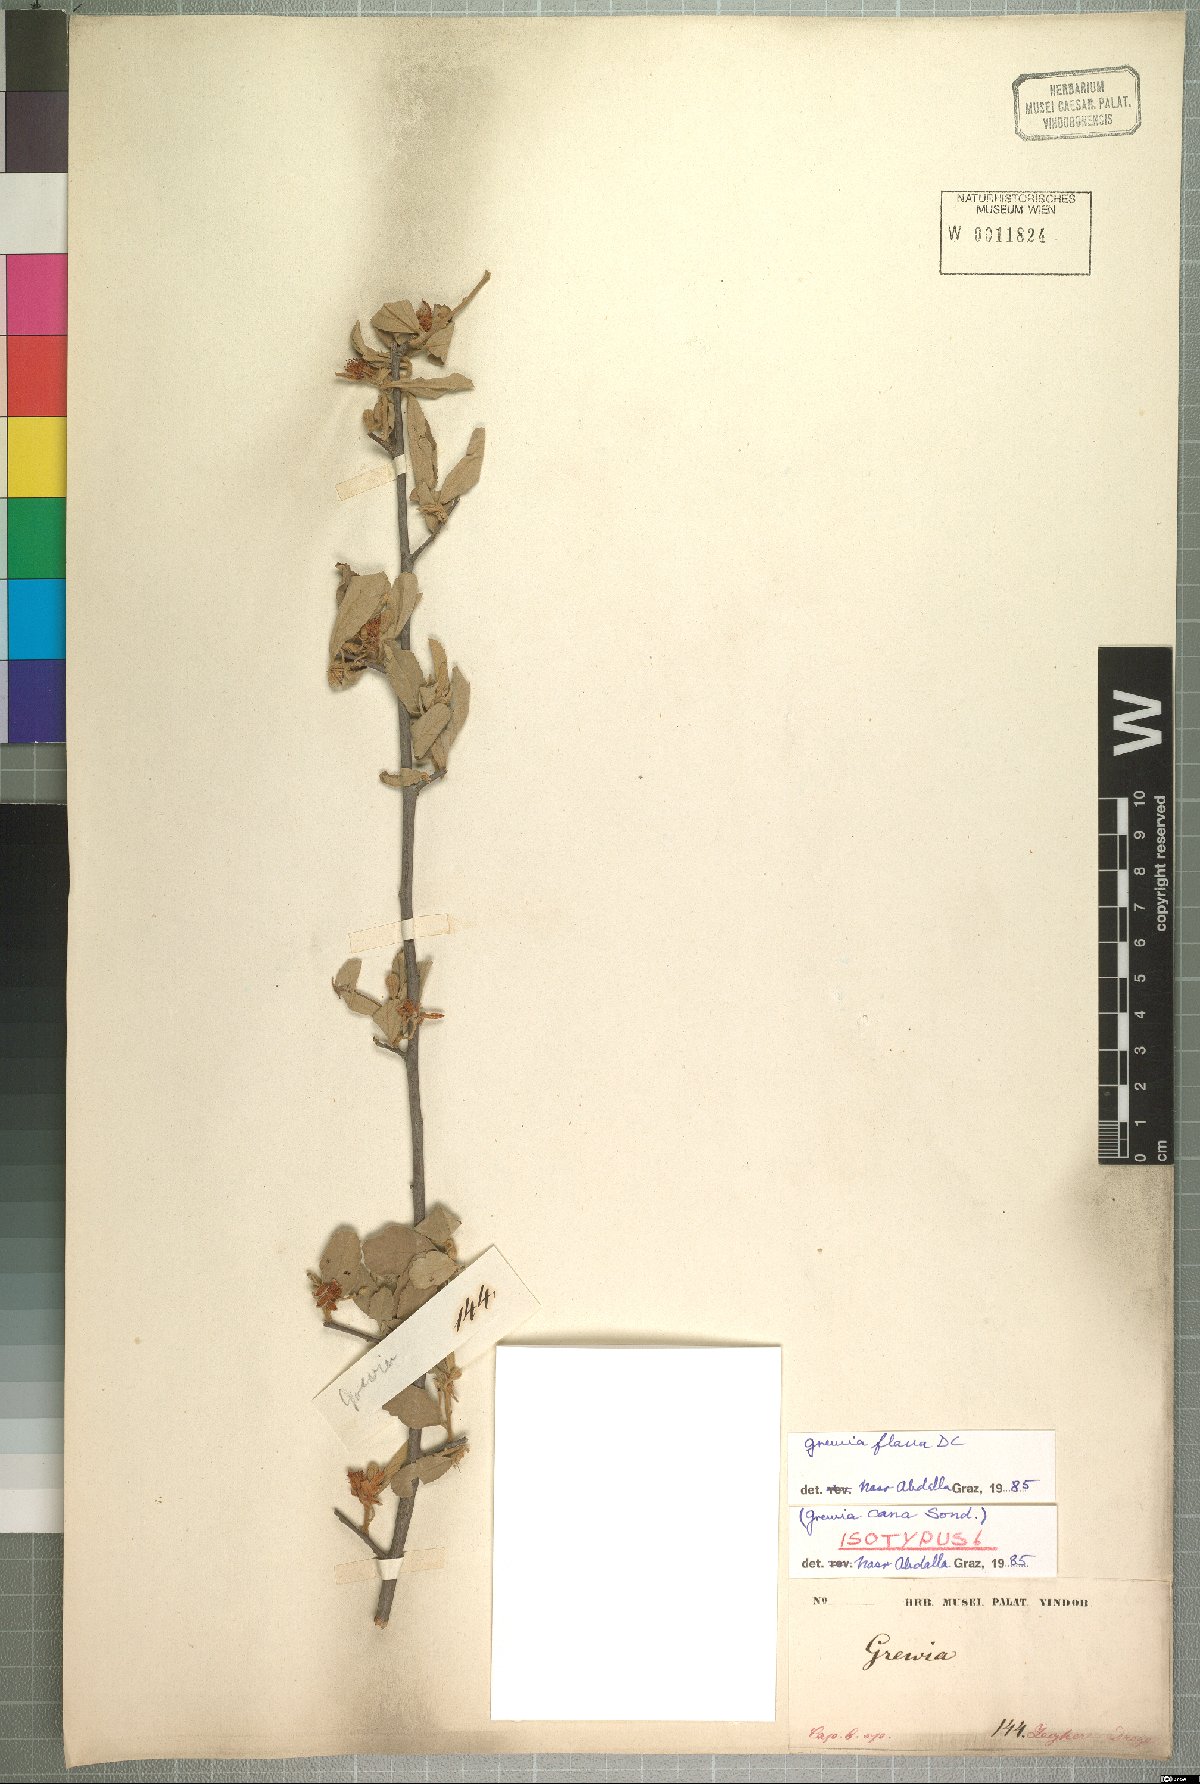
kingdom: Plantae
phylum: Tracheophyta
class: Magnoliopsida
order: Malvales
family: Malvaceae
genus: Grewia
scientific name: Grewia flava
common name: Brandy bush
